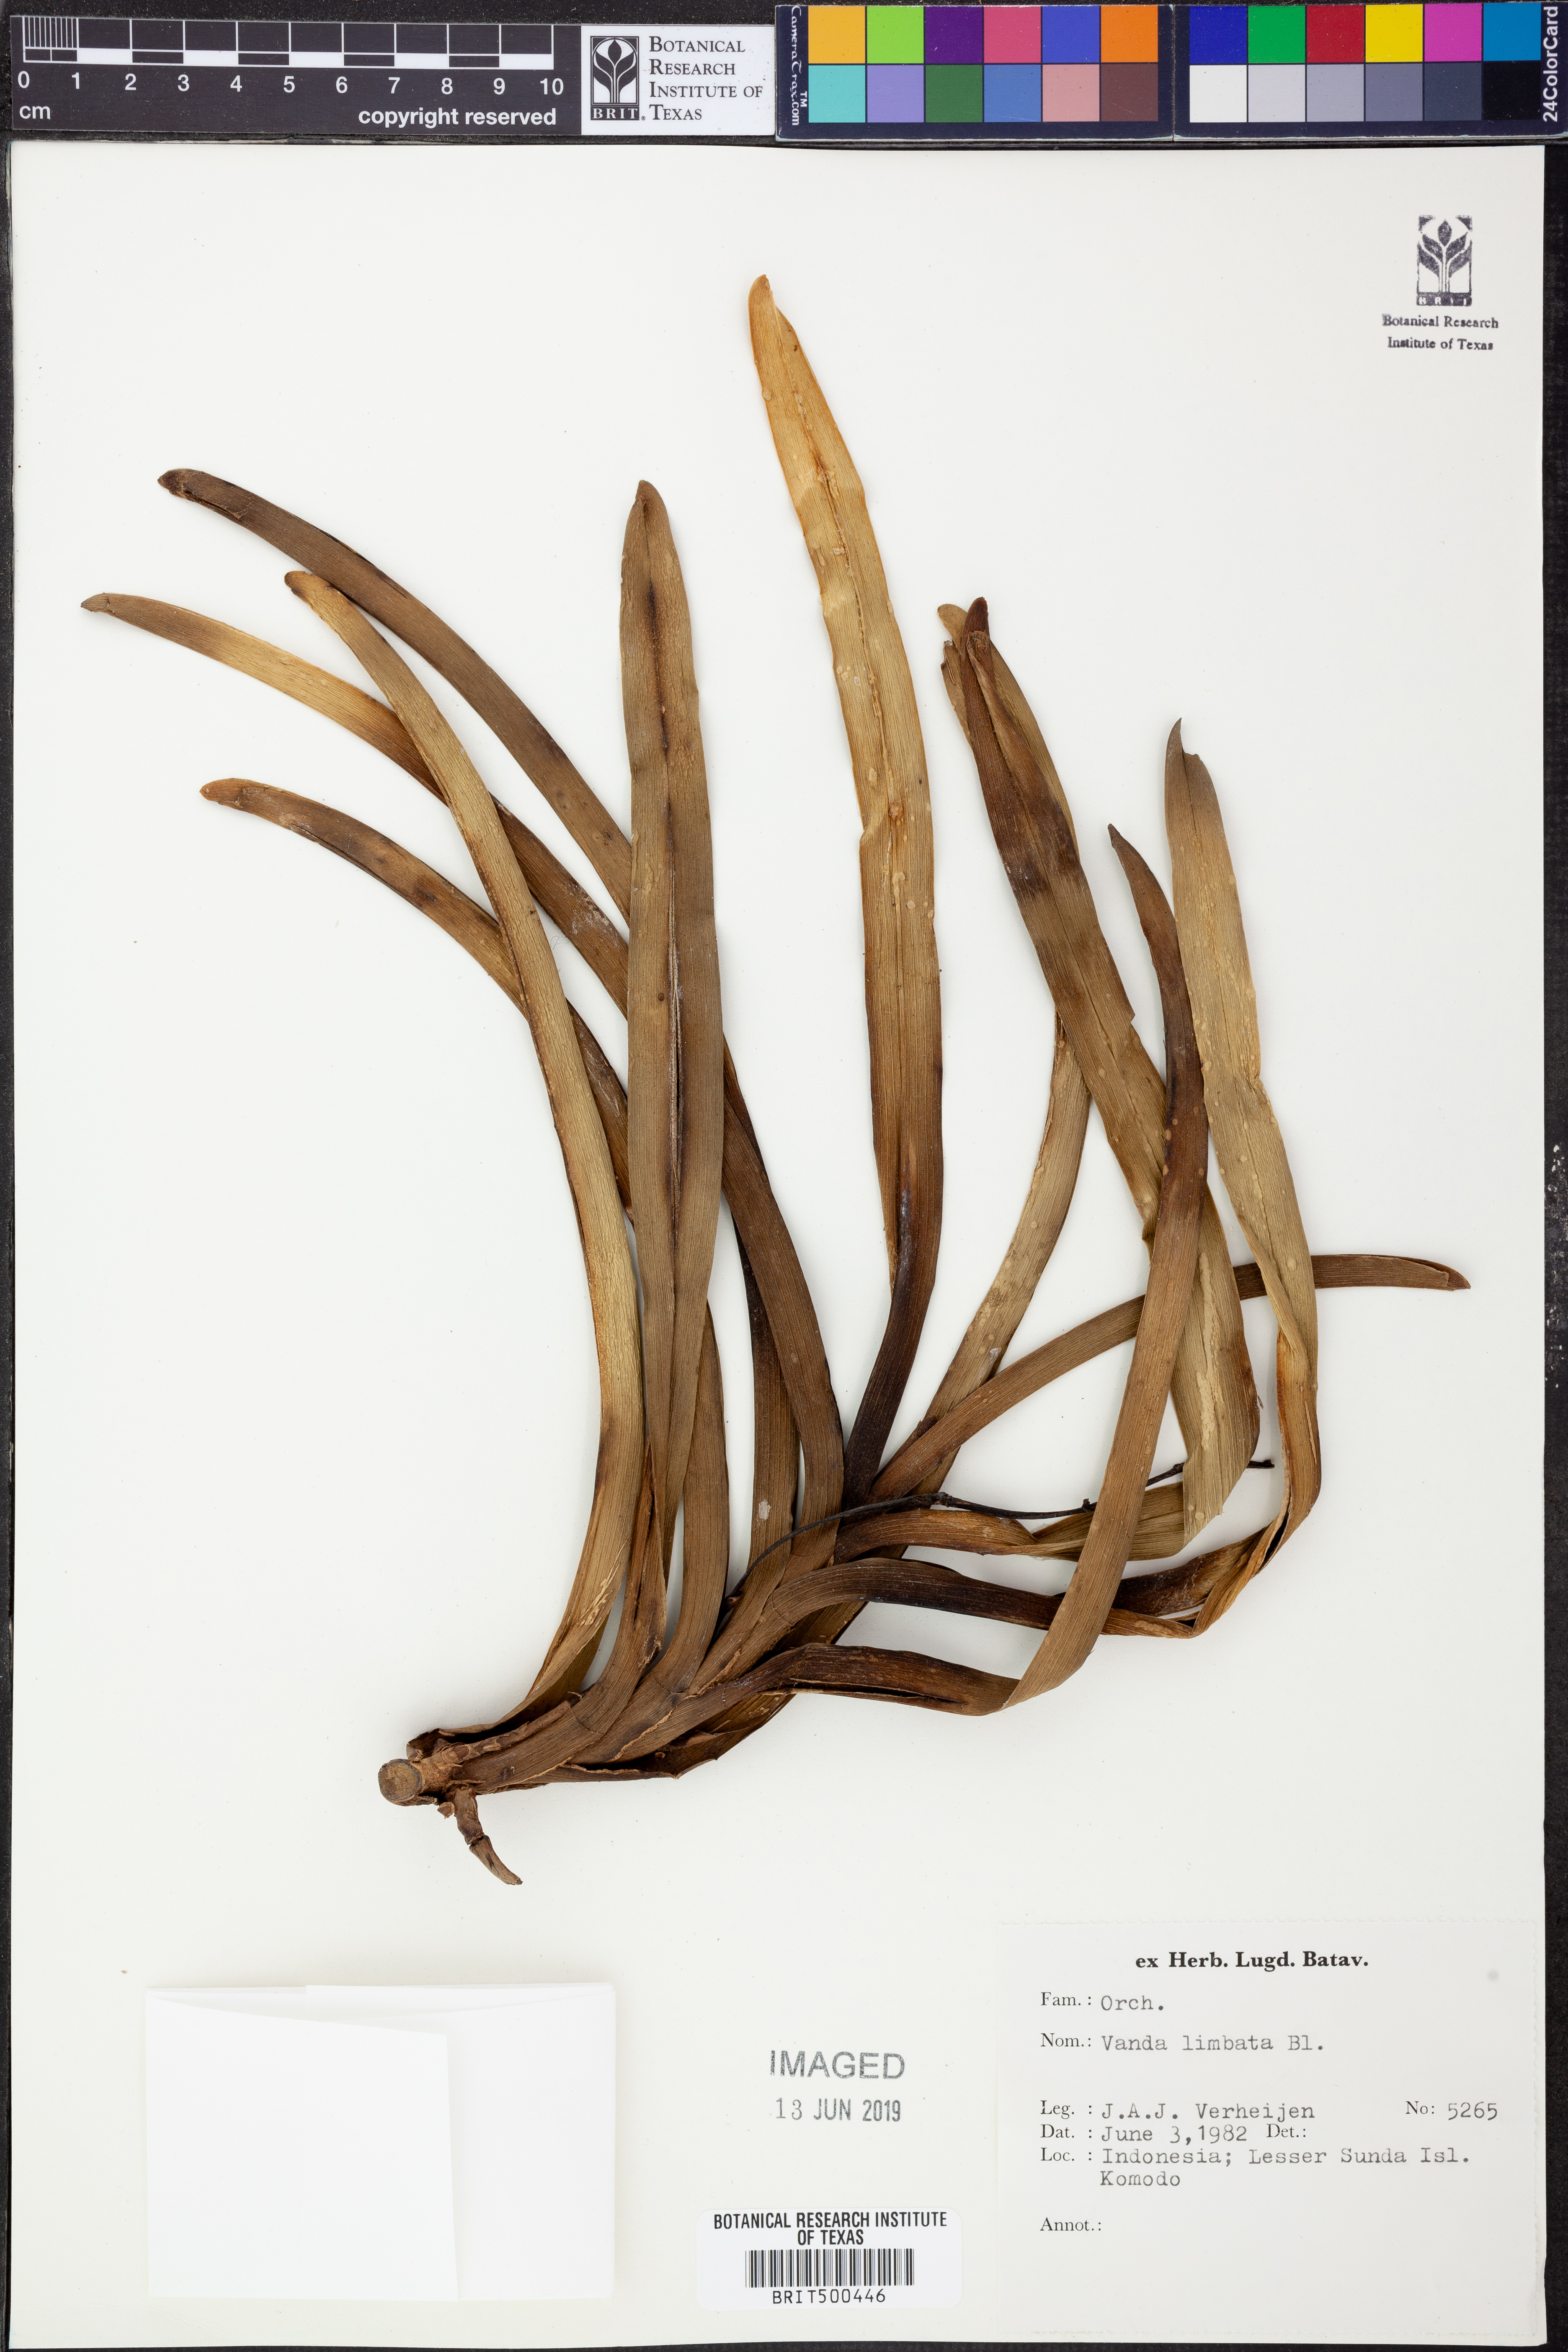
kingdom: Plantae
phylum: Tracheophyta
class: Liliopsida
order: Asparagales
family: Orchidaceae
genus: Vanda
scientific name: Vanda limbata
